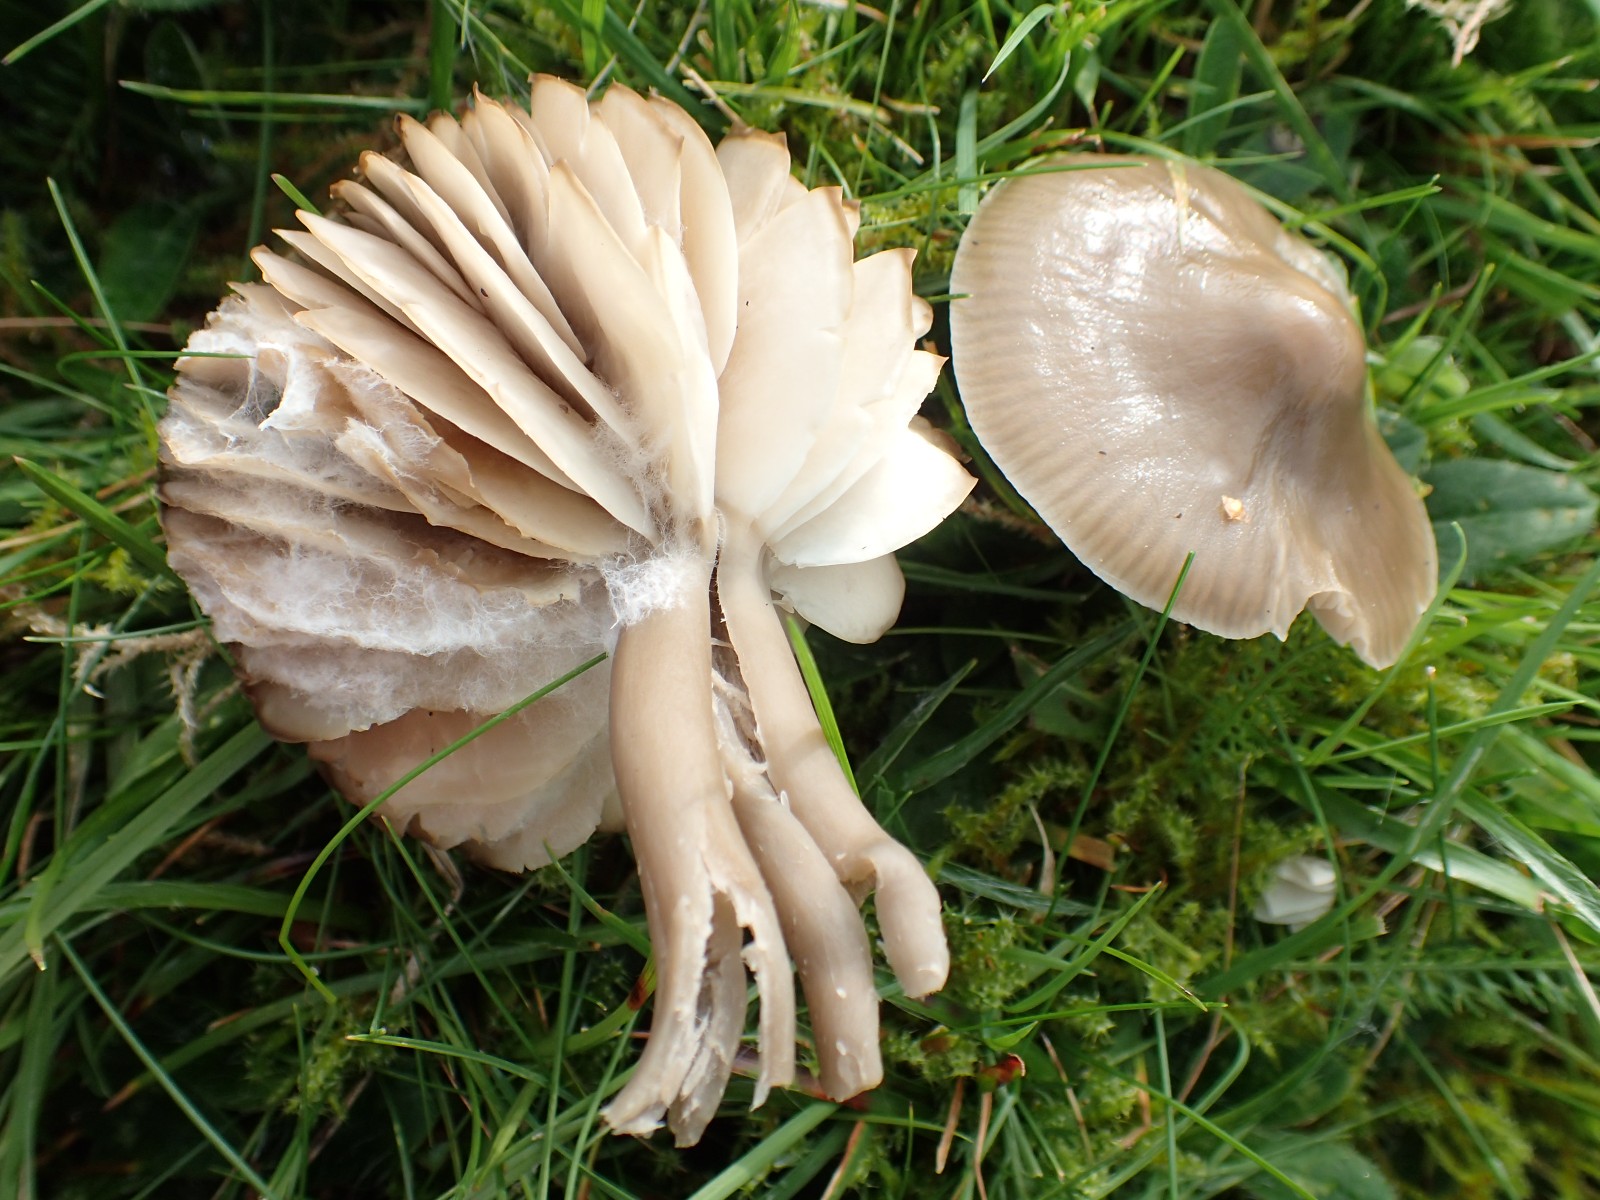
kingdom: Fungi
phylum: Basidiomycota
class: Agaricomycetes
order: Agaricales
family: Hygrophoraceae
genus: Gliophorus
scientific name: Gliophorus irrigatus
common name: slimet vokshat
